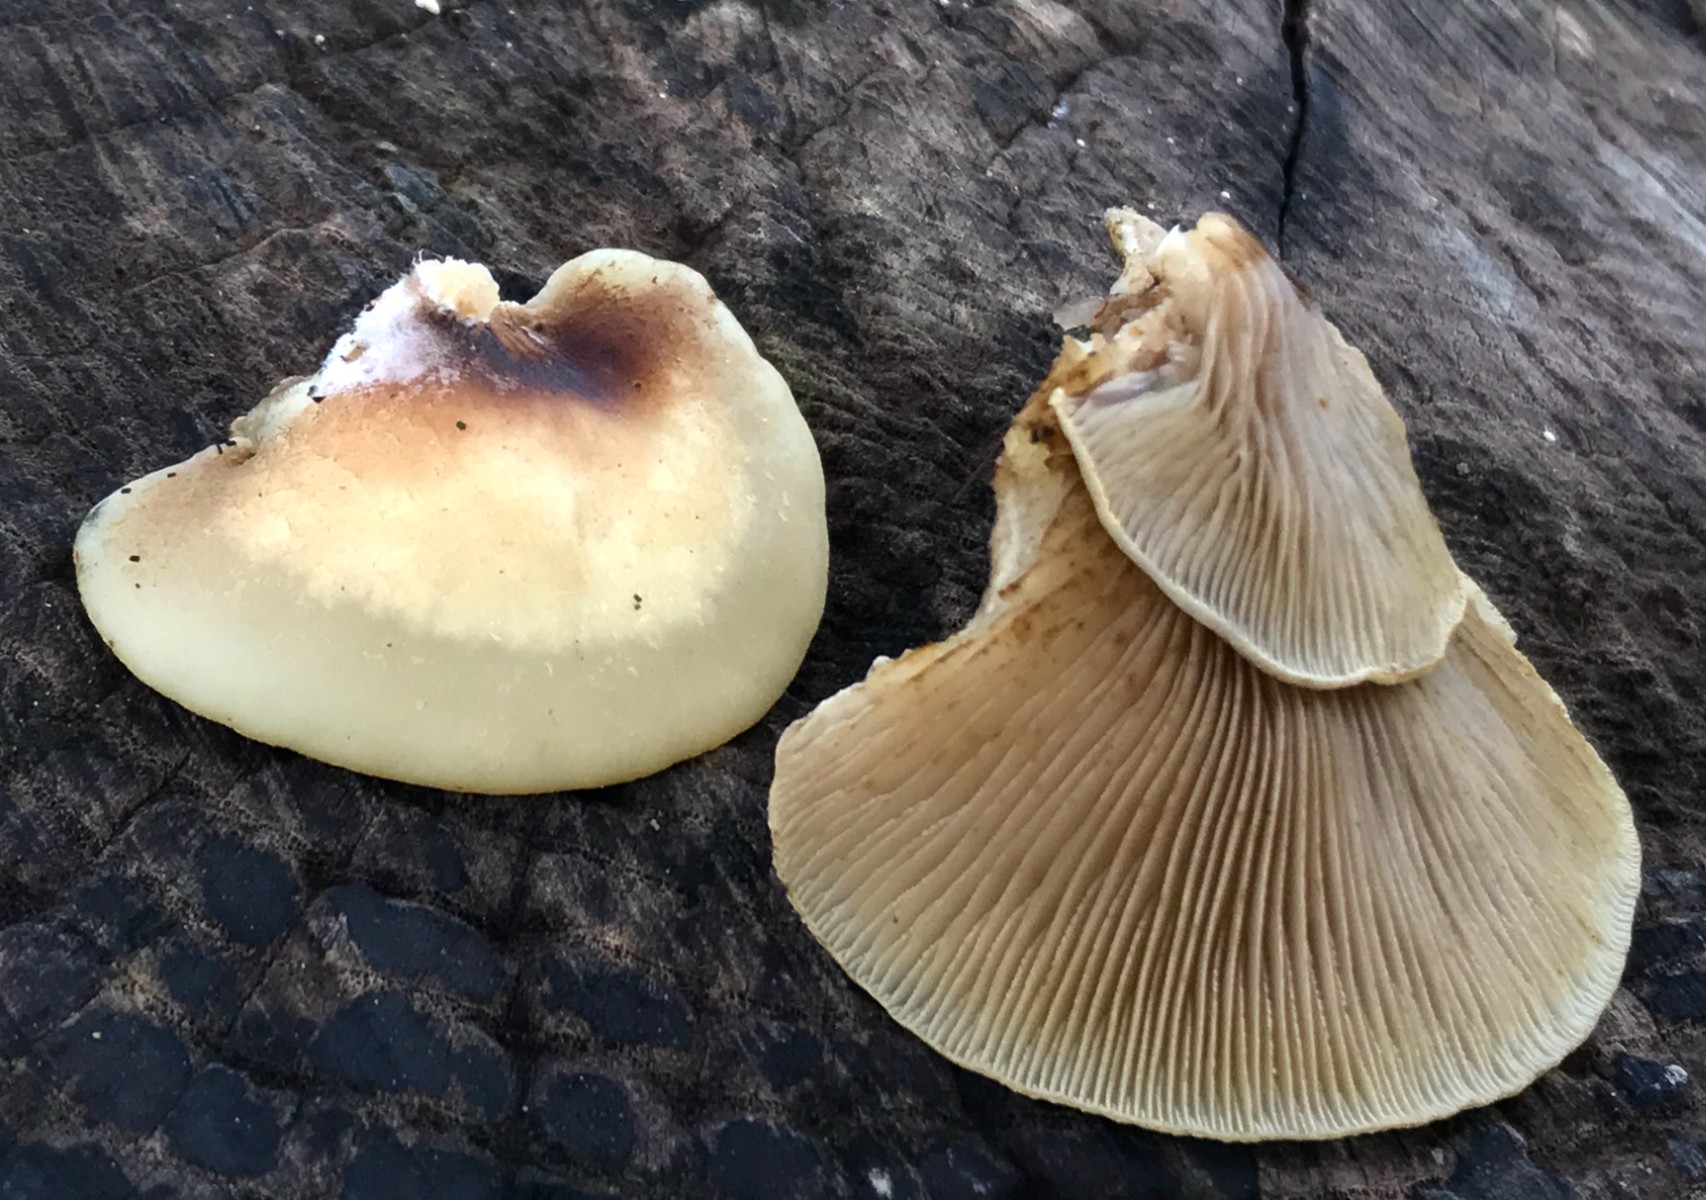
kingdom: Fungi
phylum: Basidiomycota
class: Agaricomycetes
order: Agaricales
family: Crepidotaceae
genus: Crepidotus
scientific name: Crepidotus mollis
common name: blød muslingesvamp
